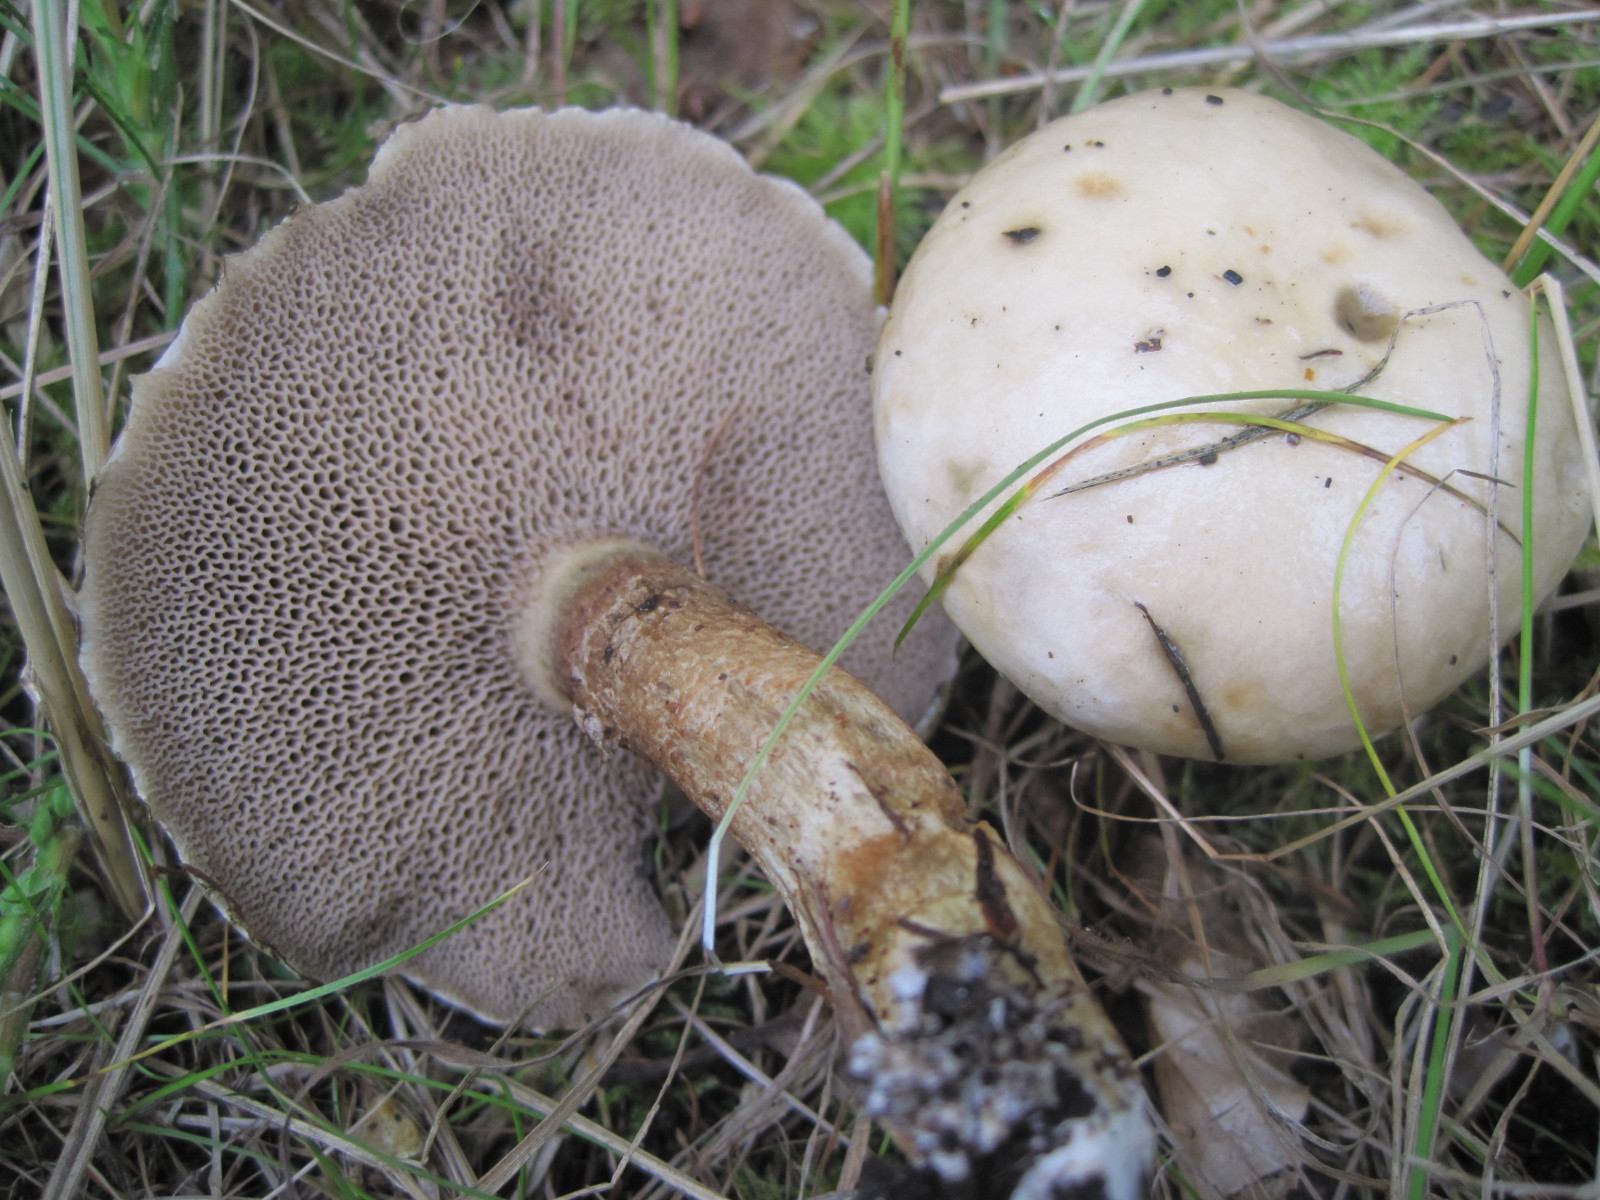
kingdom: Fungi
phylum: Basidiomycota
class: Agaricomycetes
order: Boletales
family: Suillaceae
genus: Suillus
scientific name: Suillus viscidus
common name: olivengrå slimrørhat
